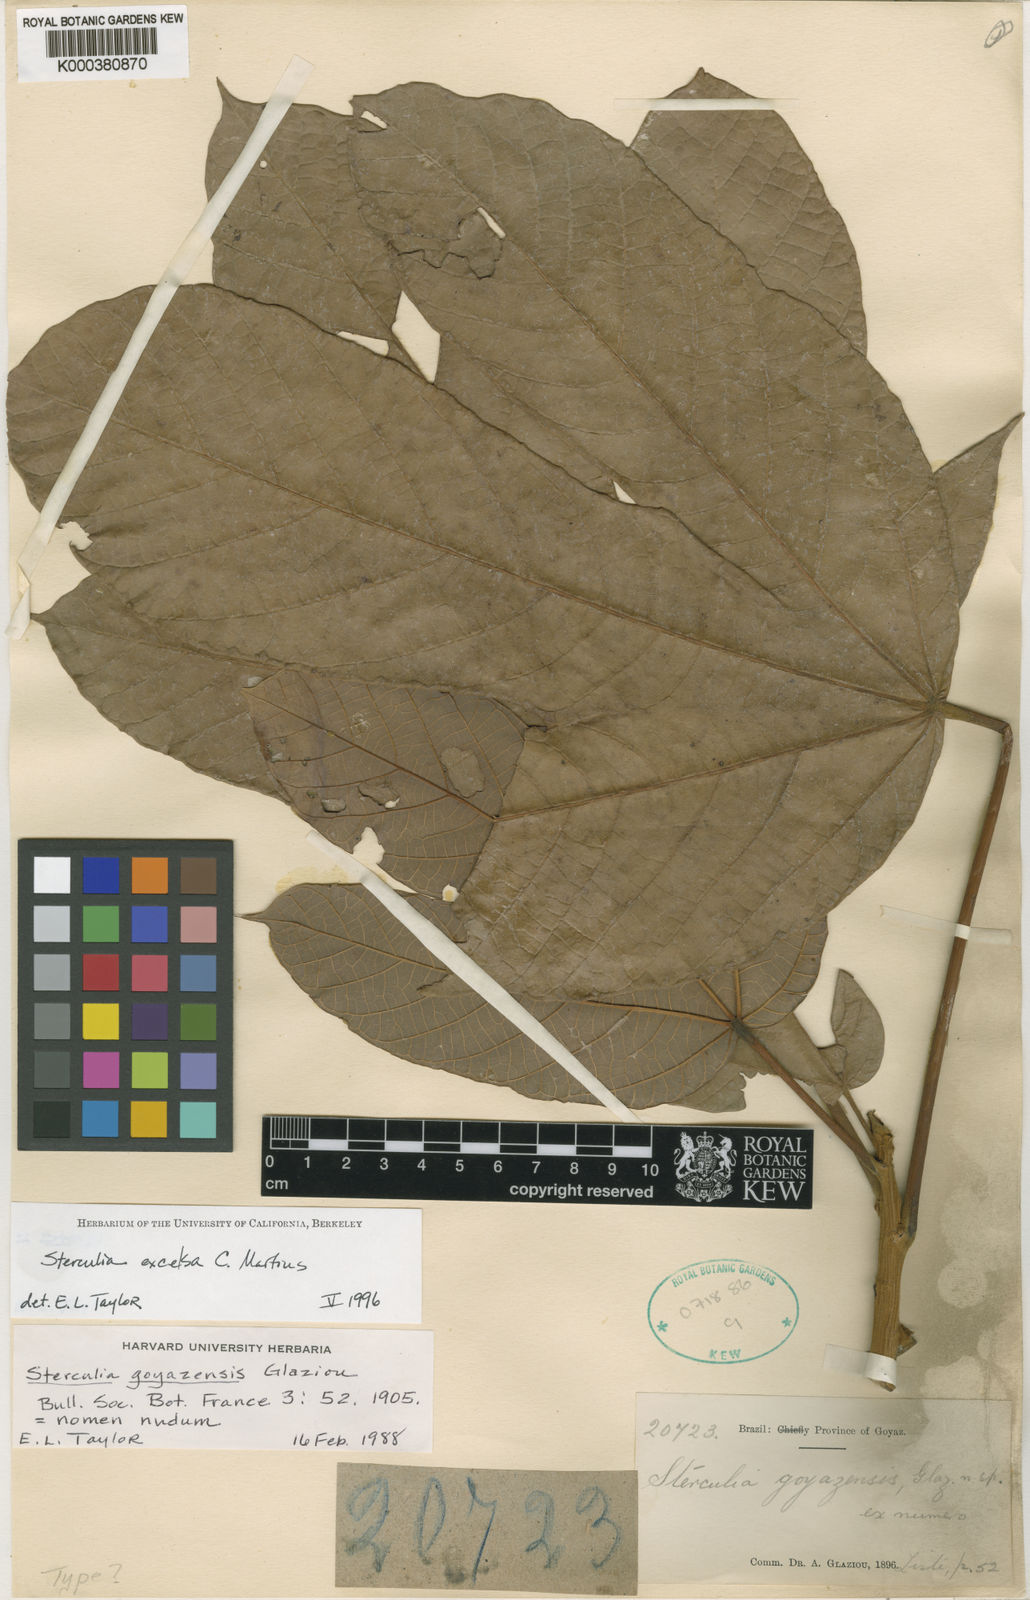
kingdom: Plantae
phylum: Tracheophyta
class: Magnoliopsida
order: Malvales
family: Malvaceae
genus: Sterculia
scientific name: Sterculia excelsa
